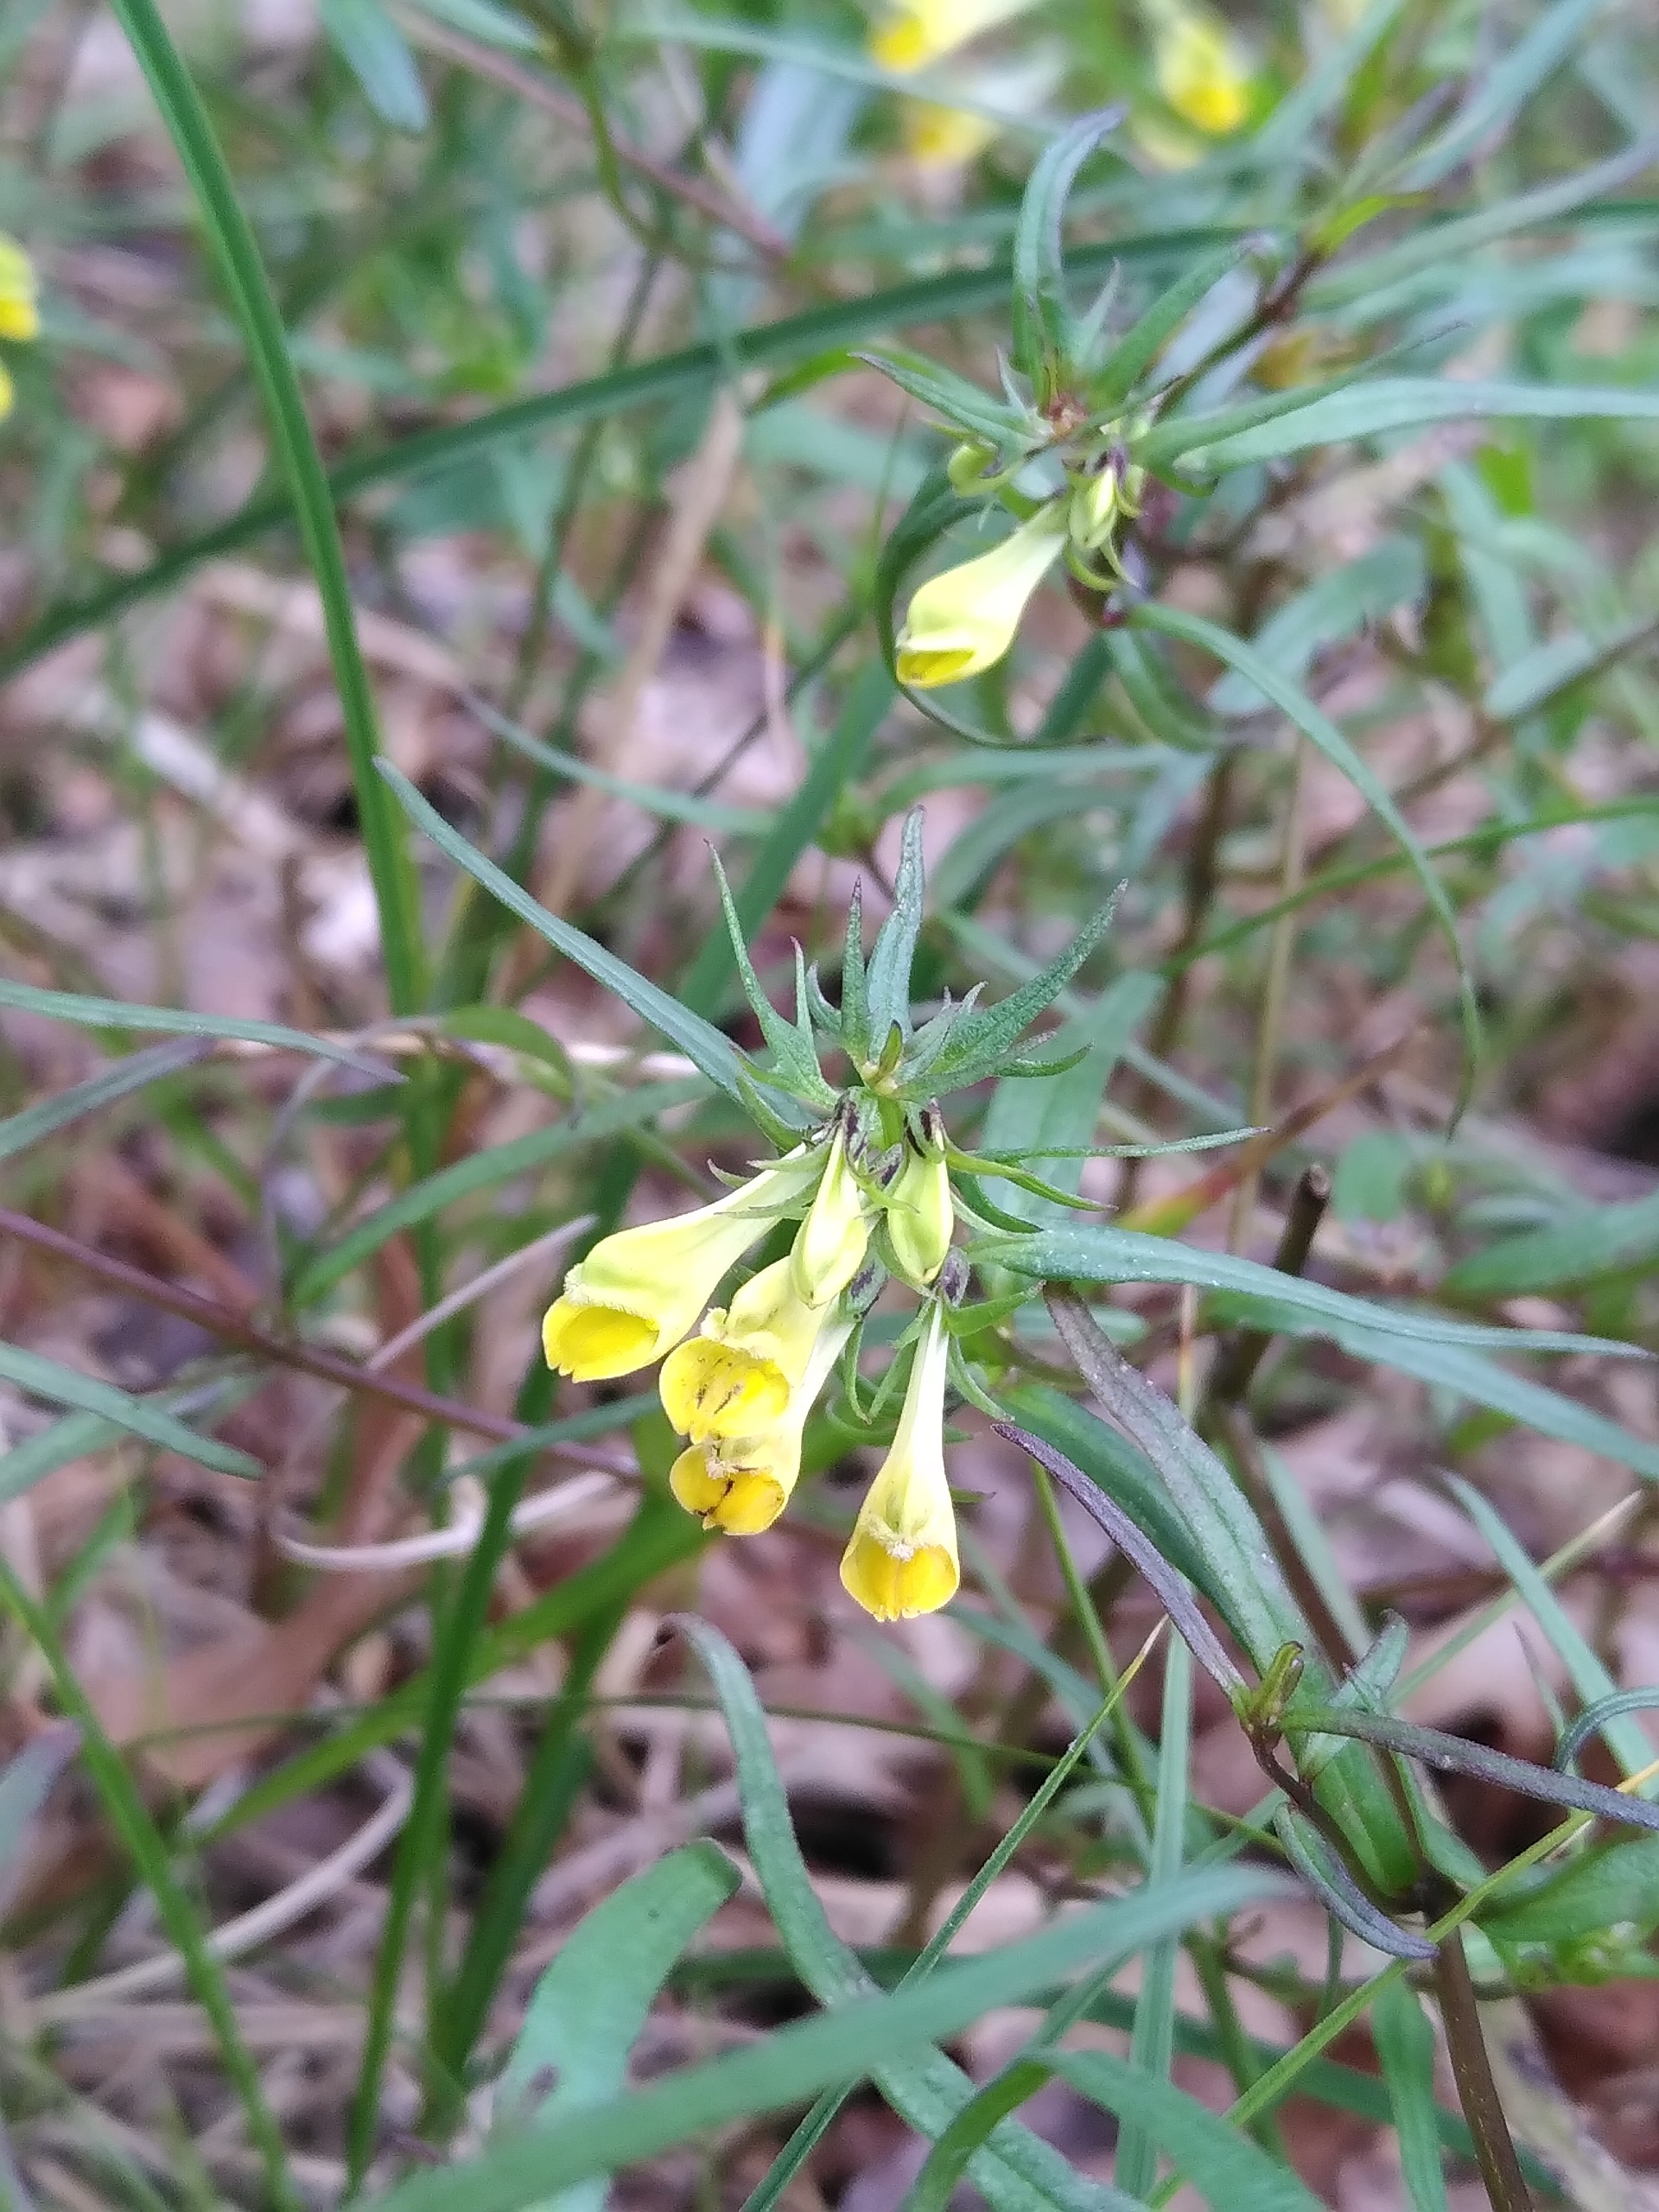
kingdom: Plantae
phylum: Tracheophyta
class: Magnoliopsida
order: Lamiales
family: Orobanchaceae
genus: Melampyrum
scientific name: Melampyrum pratense
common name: Almindelig kohvede
